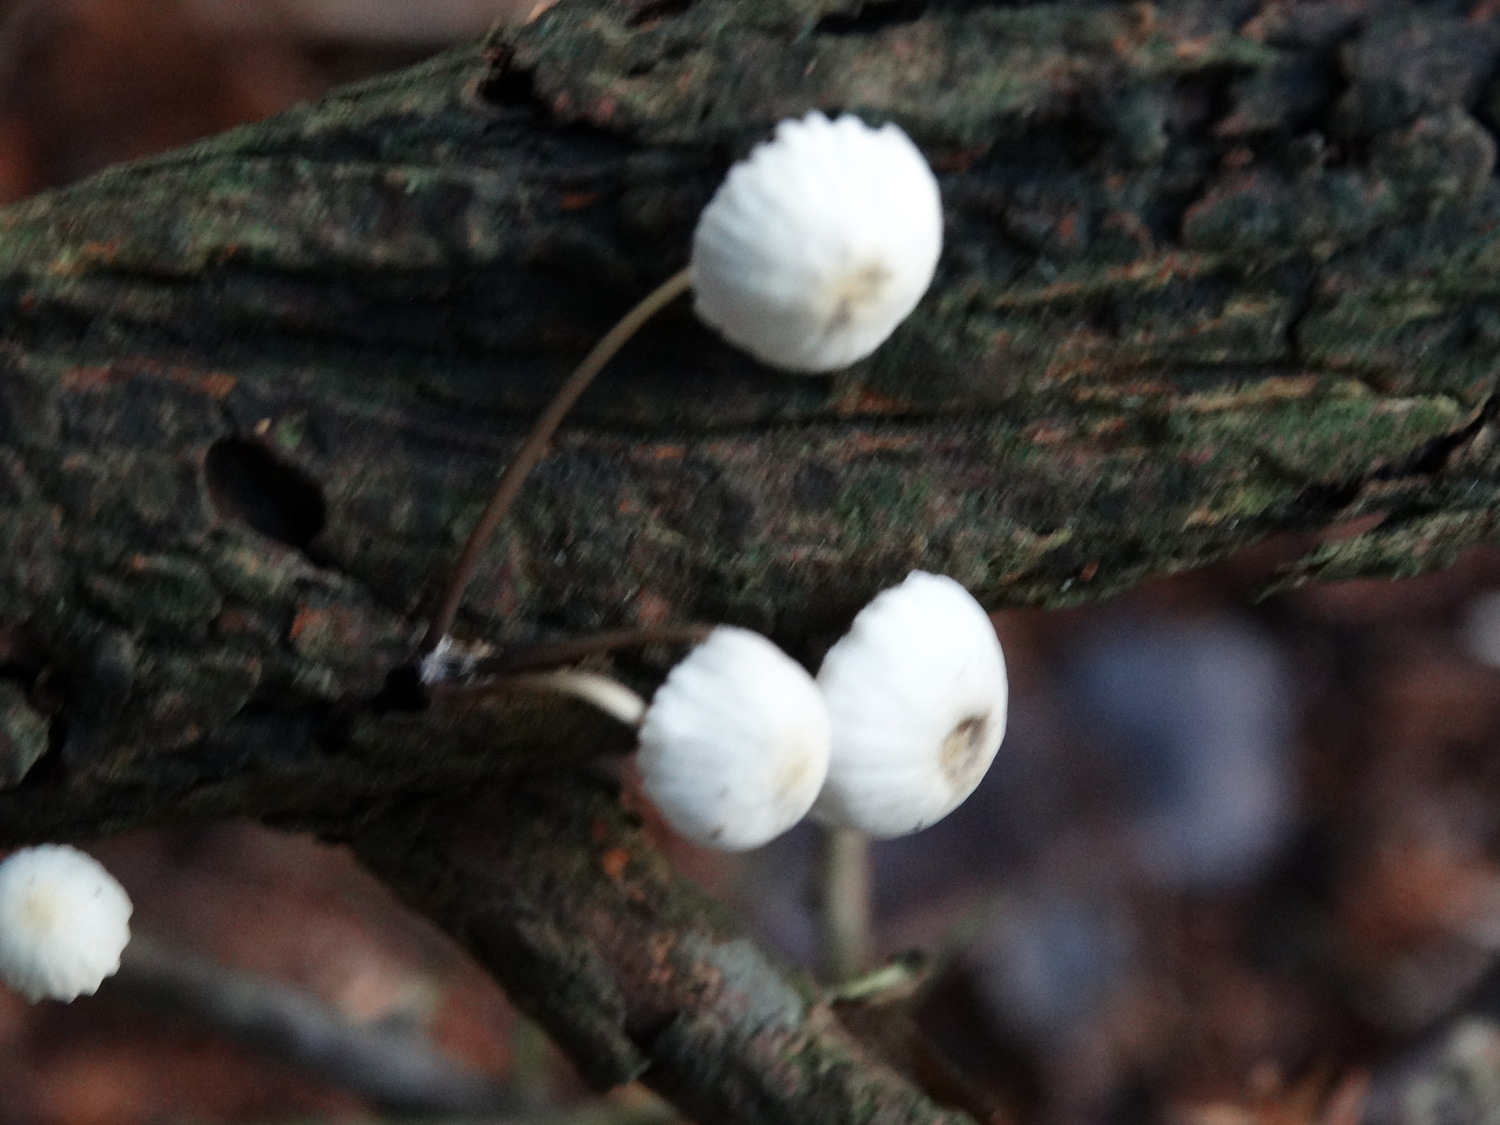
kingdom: Fungi
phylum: Basidiomycota
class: Agaricomycetes
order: Agaricales
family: Mycenaceae
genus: Mycena
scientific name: Mycena xantholeuca
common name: cremehvid huesvamp
